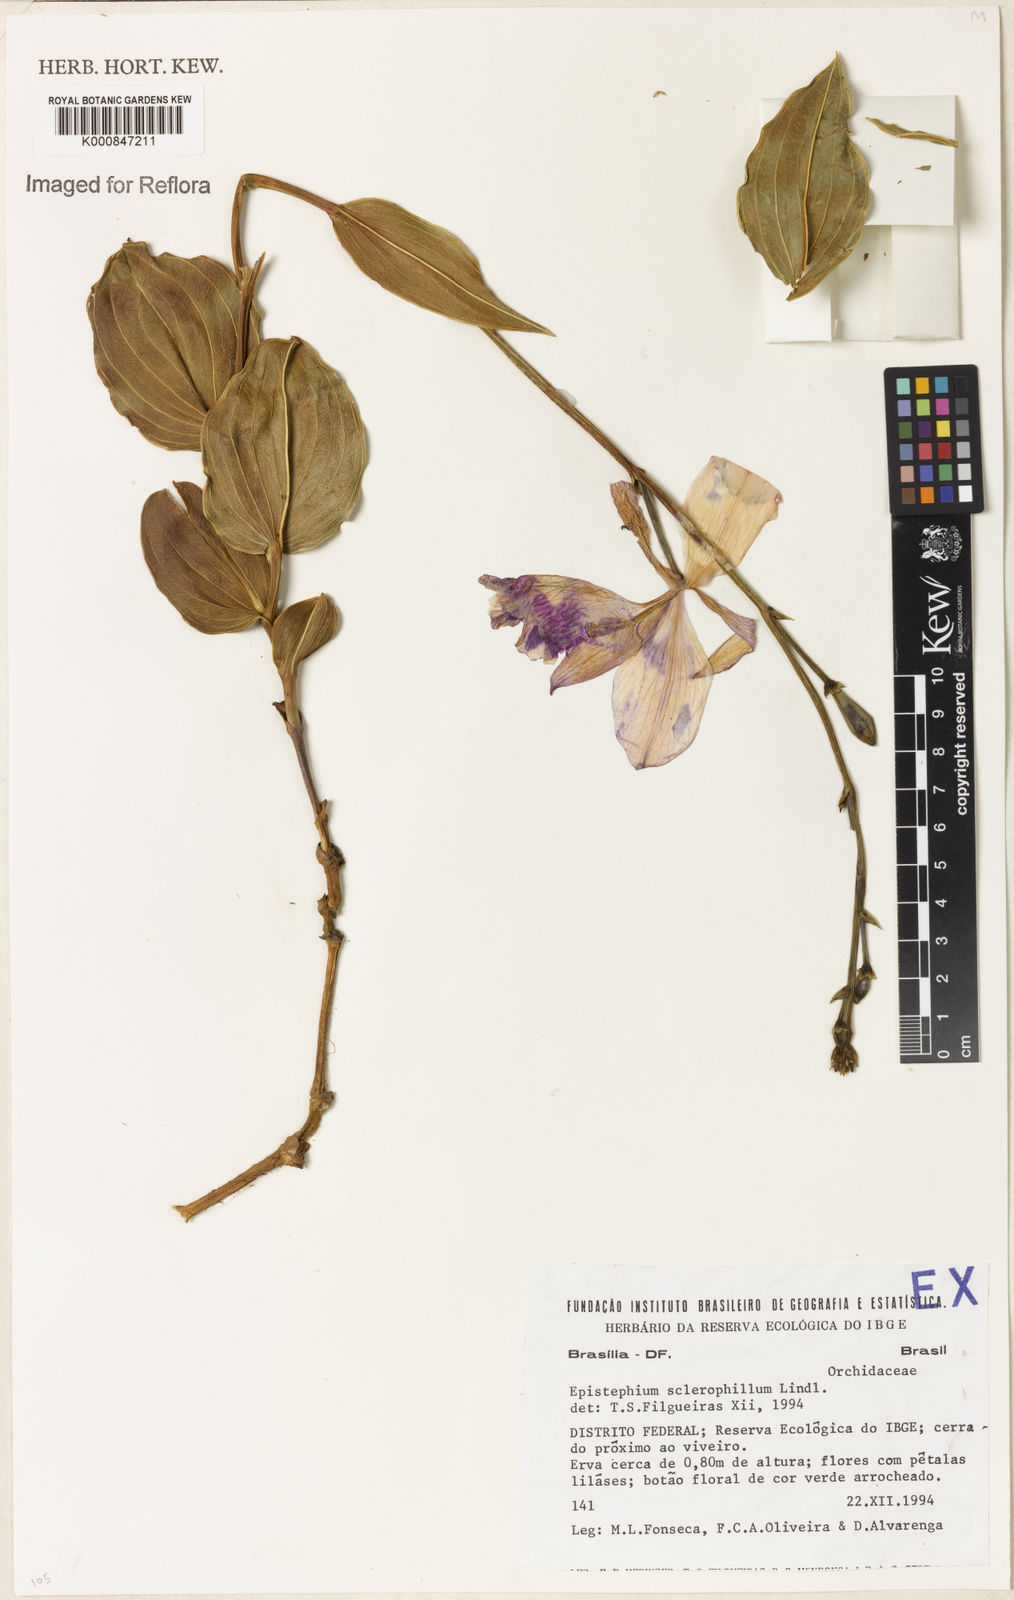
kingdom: Plantae
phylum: Tracheophyta
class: Liliopsida
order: Asparagales
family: Orchidaceae
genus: Epistephium
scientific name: Epistephium sclerophyllum
